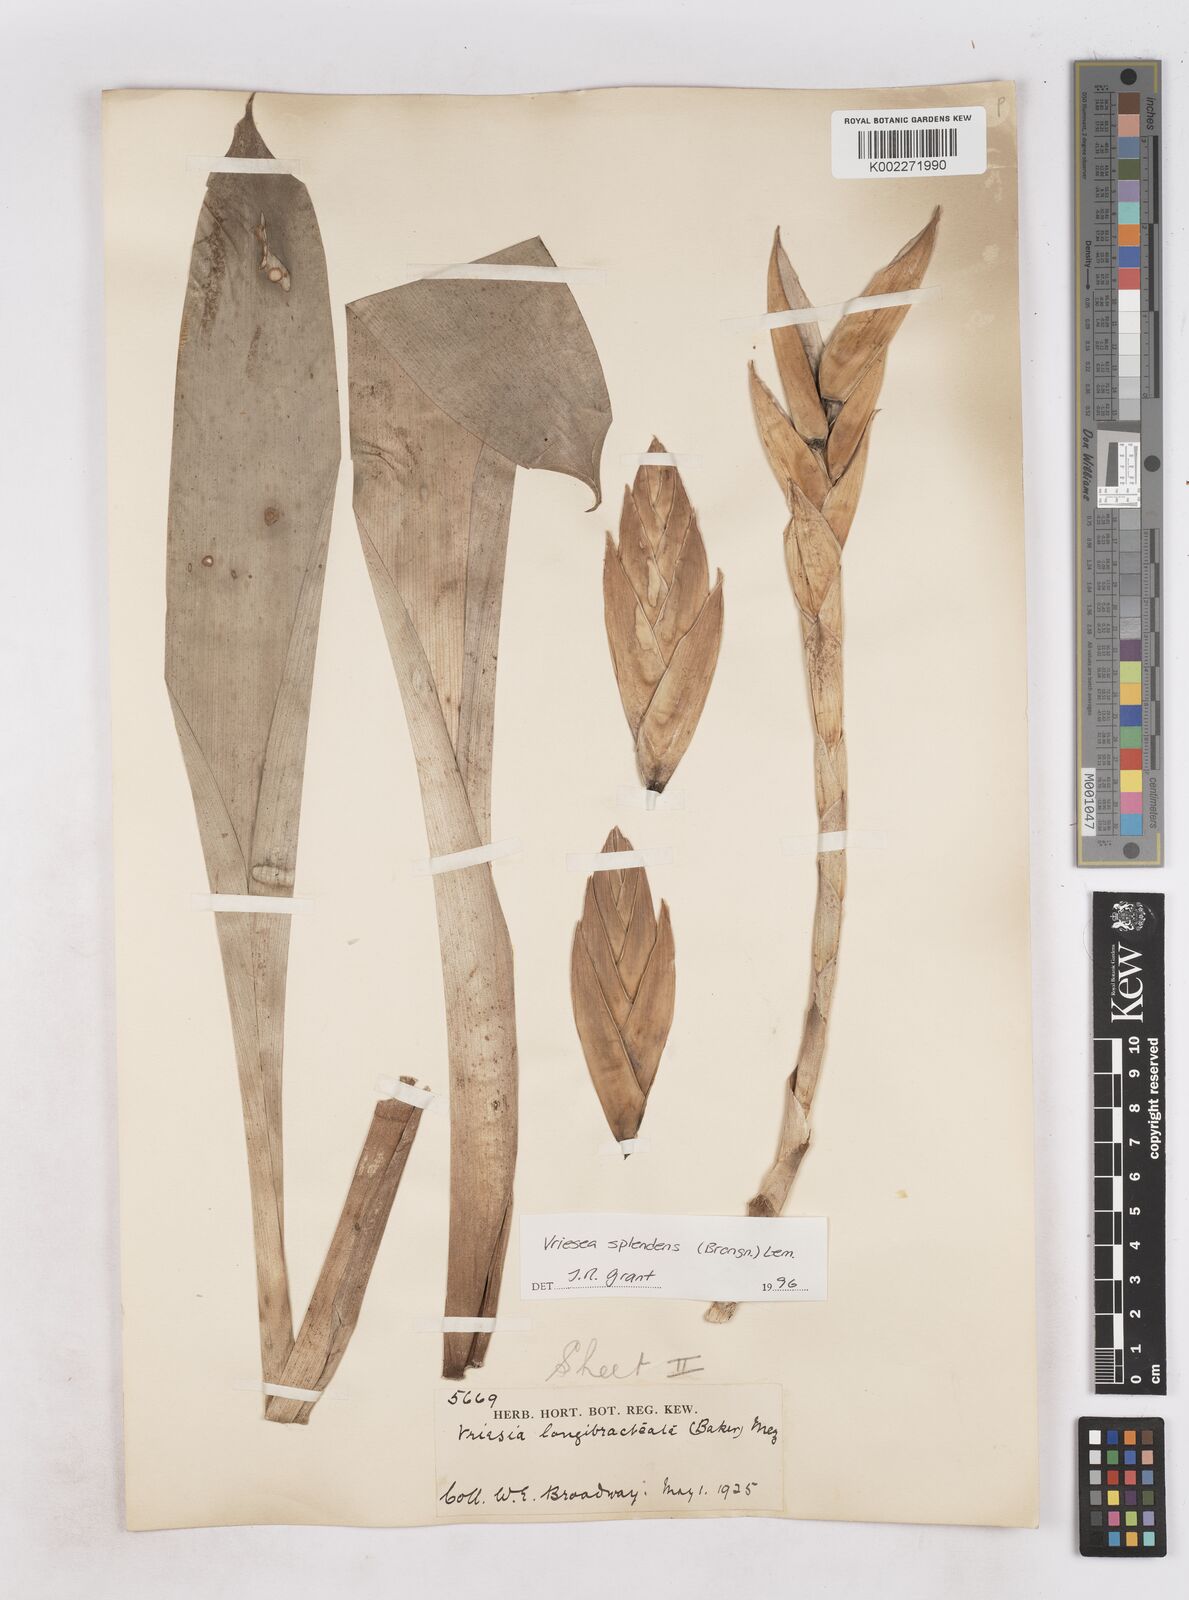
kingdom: Plantae
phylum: Tracheophyta
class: Liliopsida
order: Poales
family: Bromeliaceae
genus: Lutheria
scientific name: Lutheria splendens
